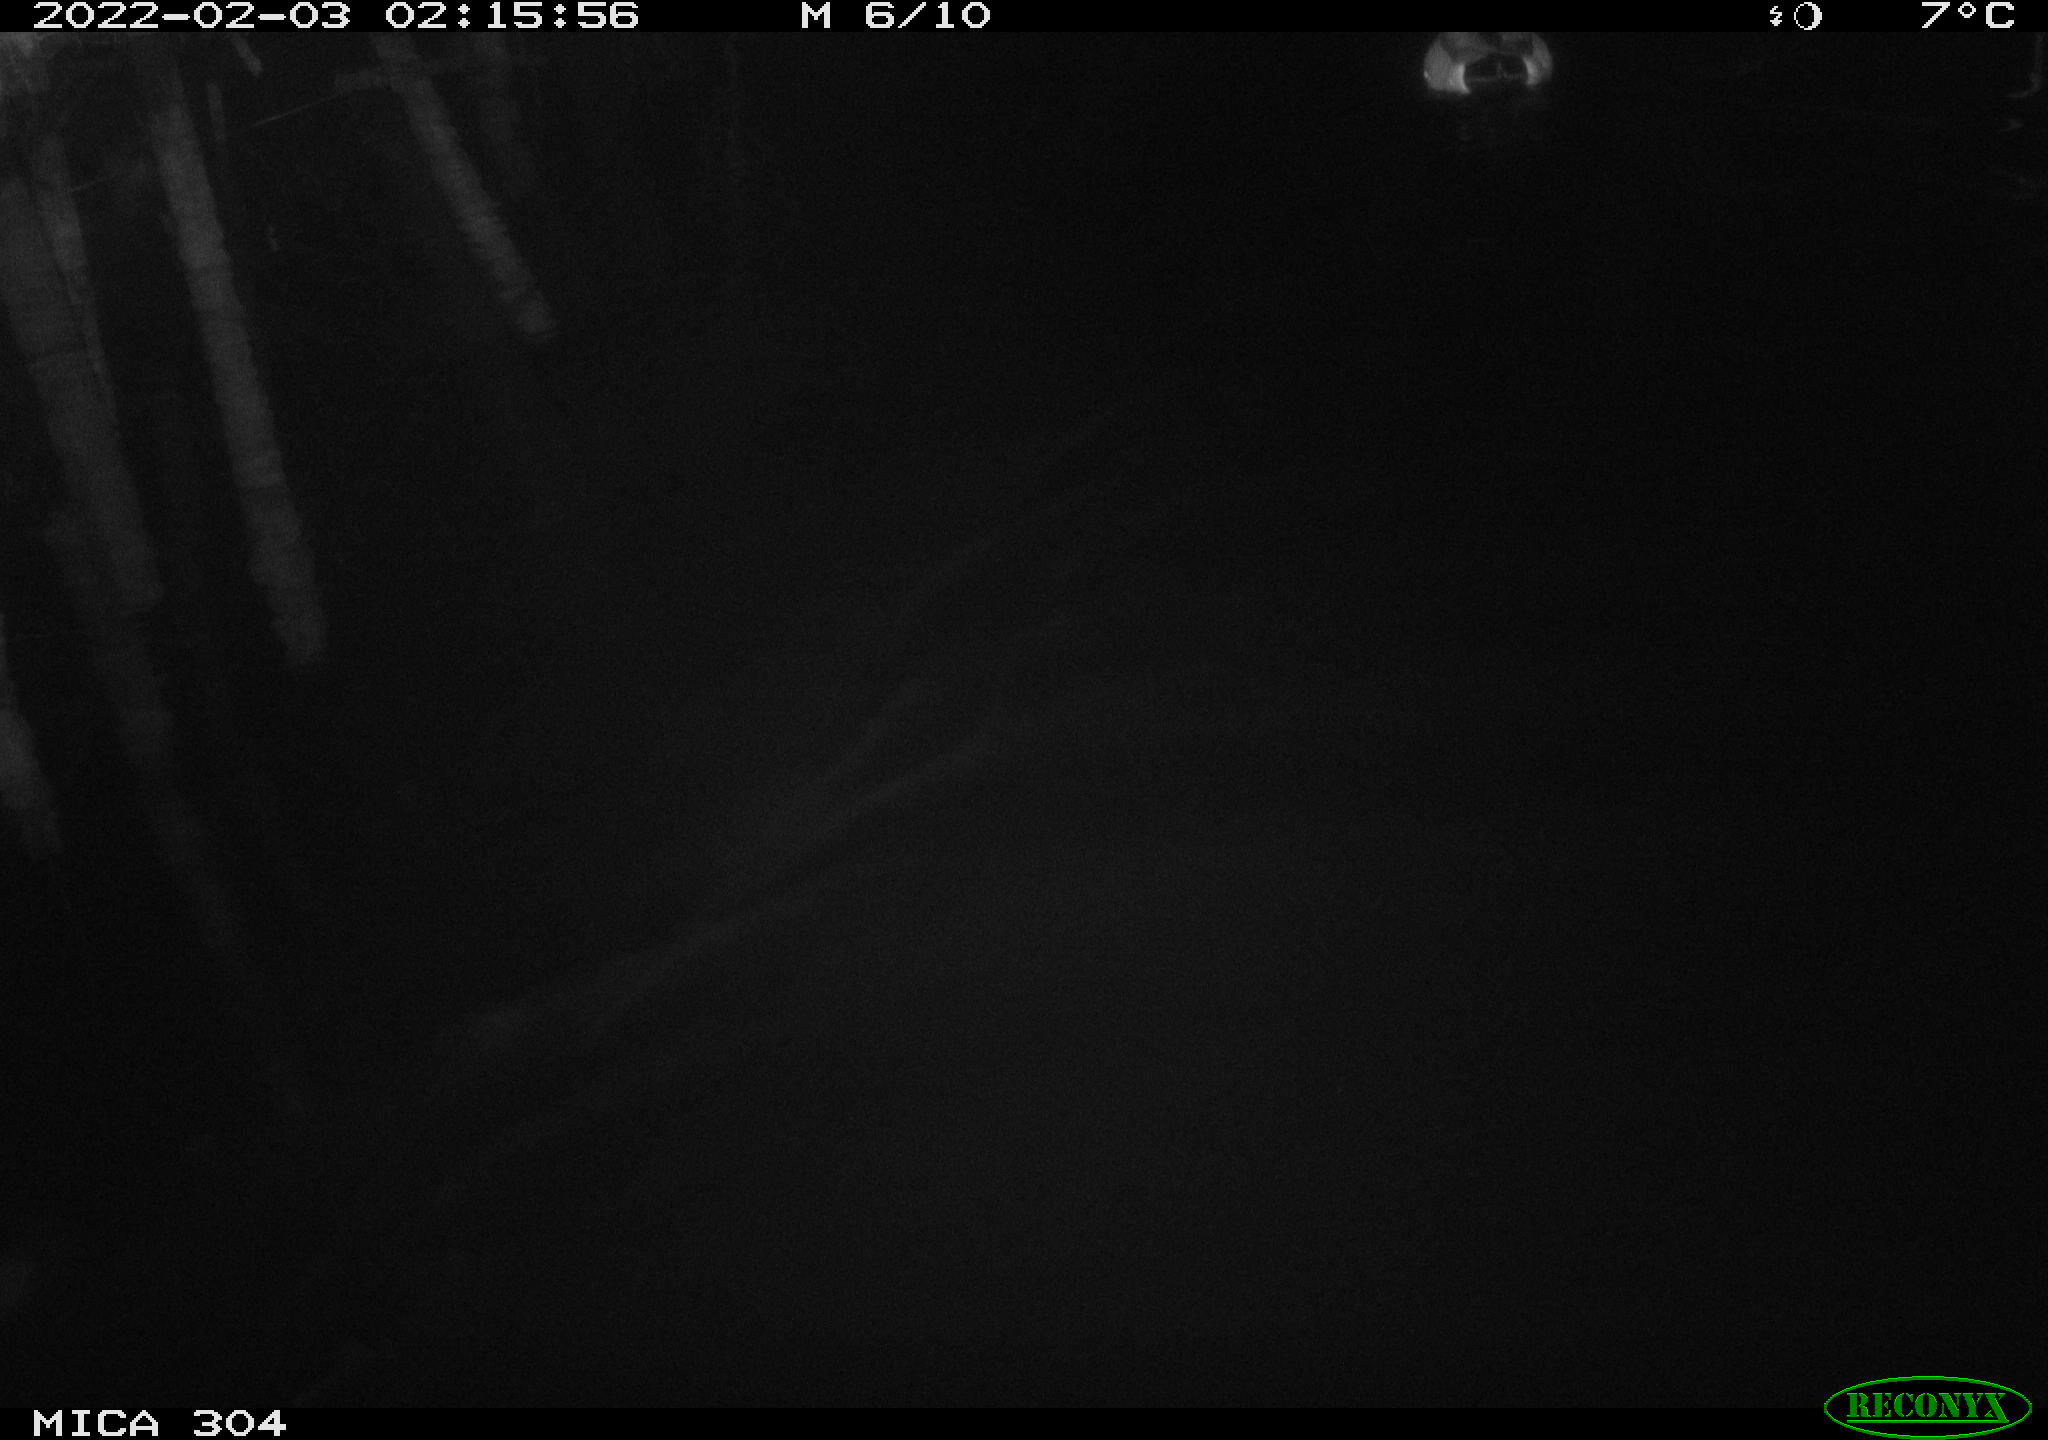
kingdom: Animalia
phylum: Chordata
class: Aves
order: Anseriformes
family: Anatidae
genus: Anas
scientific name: Anas
